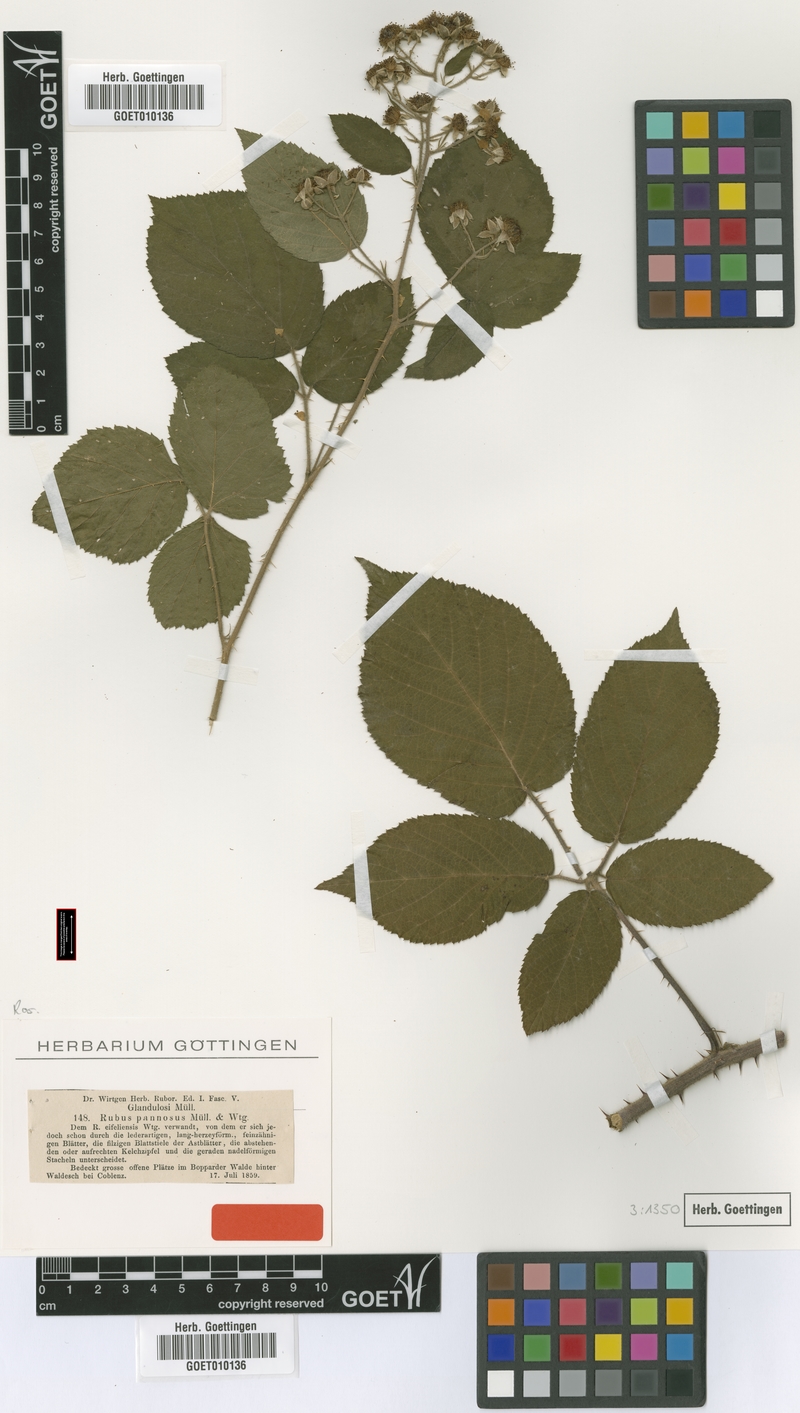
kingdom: Plantae
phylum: Tracheophyta
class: Magnoliopsida
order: Rosales
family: Rosaceae
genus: Rubus
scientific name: Rubus pannosus
